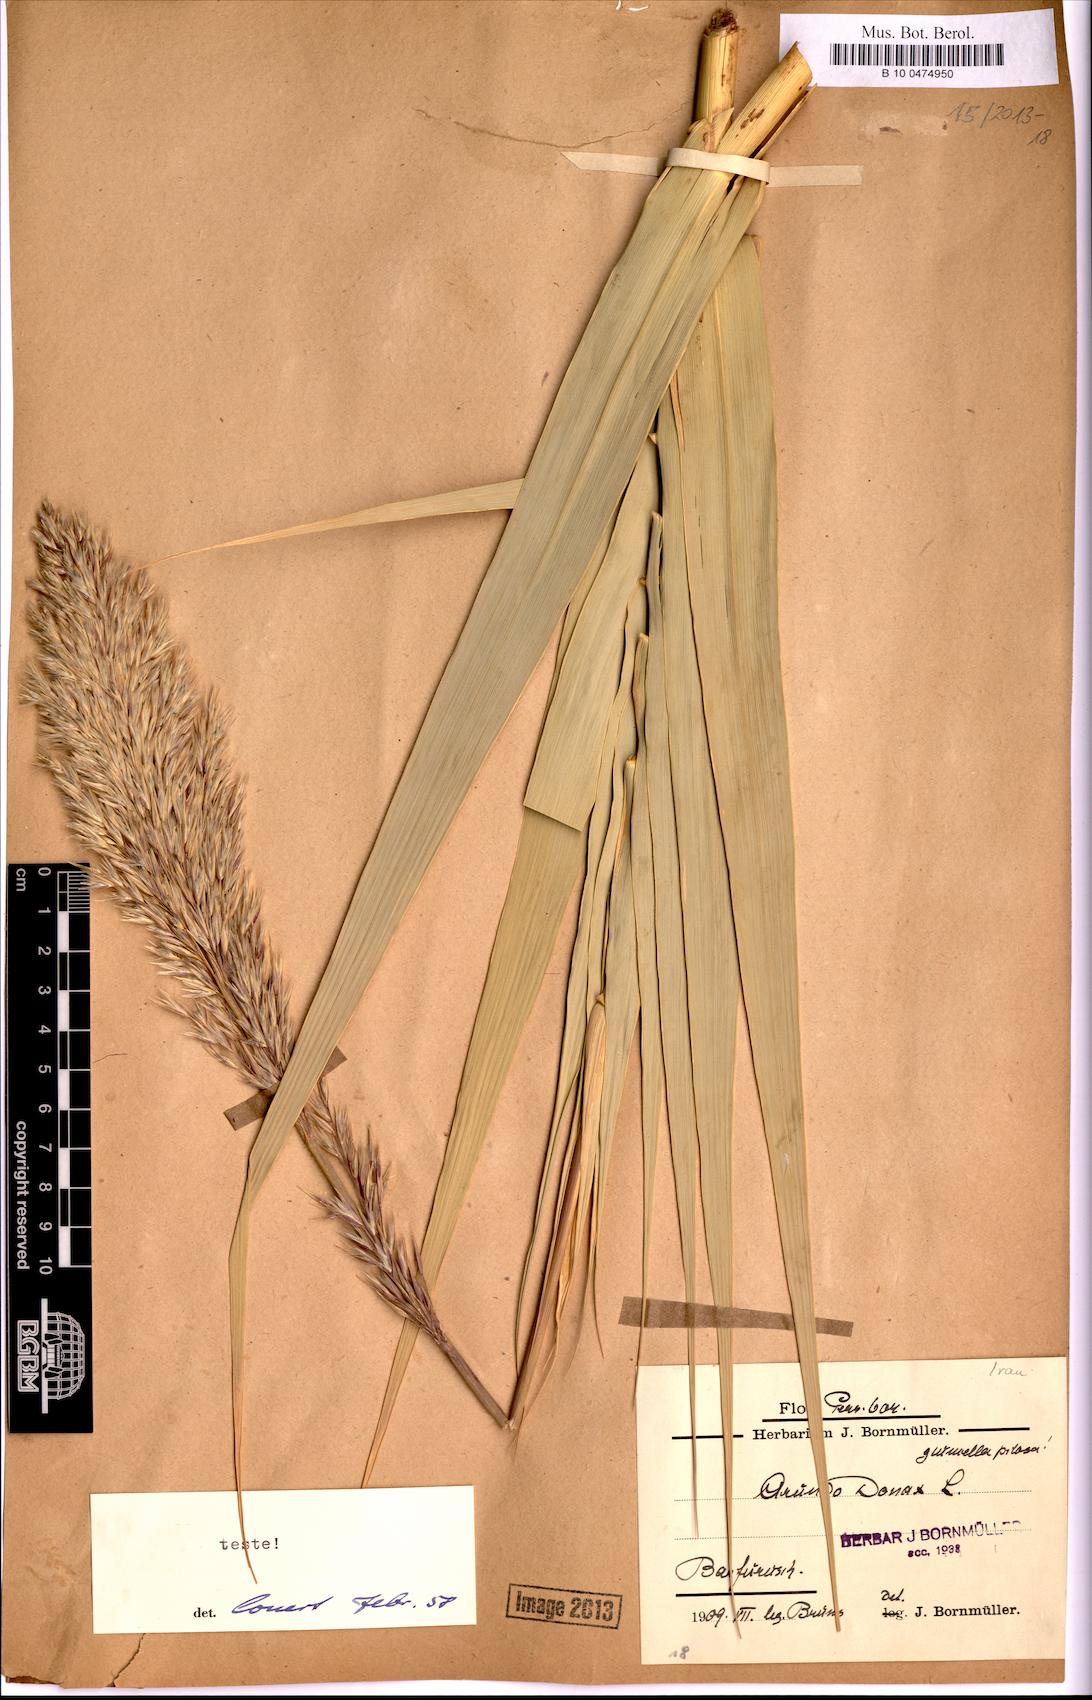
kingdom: Plantae
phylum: Tracheophyta
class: Liliopsida
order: Poales
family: Poaceae
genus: Arundo
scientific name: Arundo donax
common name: Giant reed
